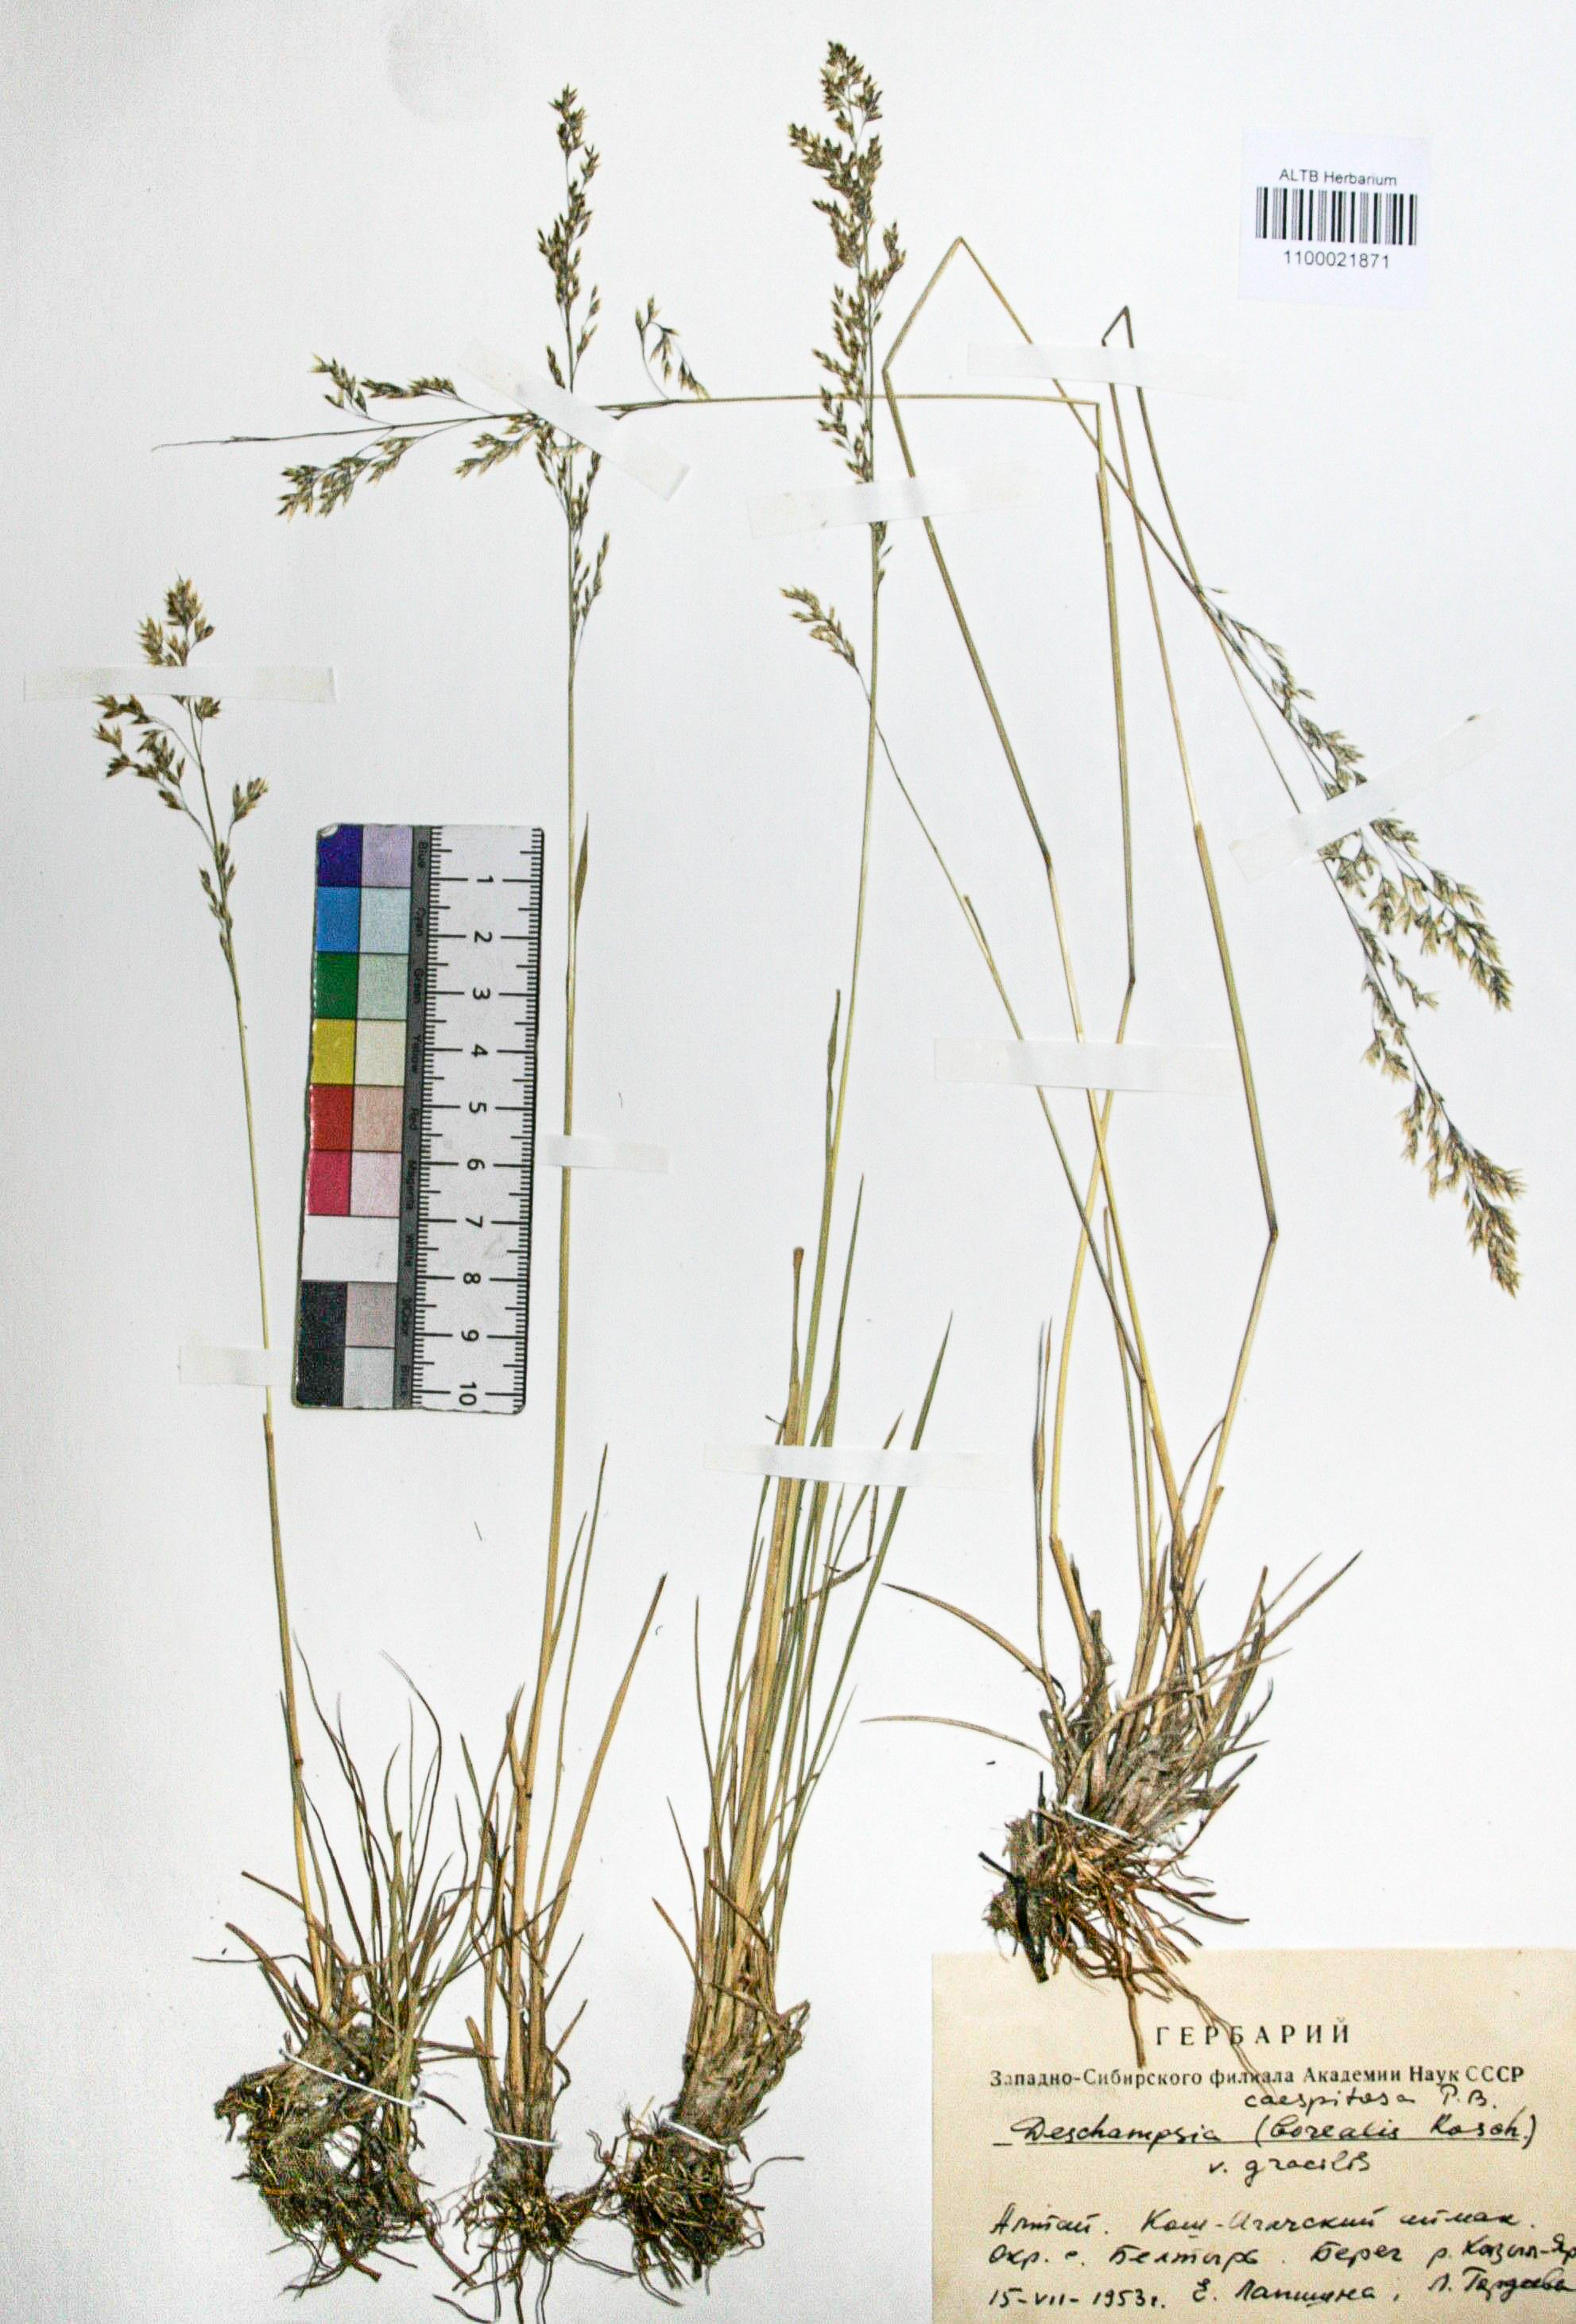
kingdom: Plantae
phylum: Tracheophyta
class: Liliopsida
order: Poales
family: Poaceae
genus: Deschampsia
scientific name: Deschampsia cespitosa
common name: Tufted hair-grass
